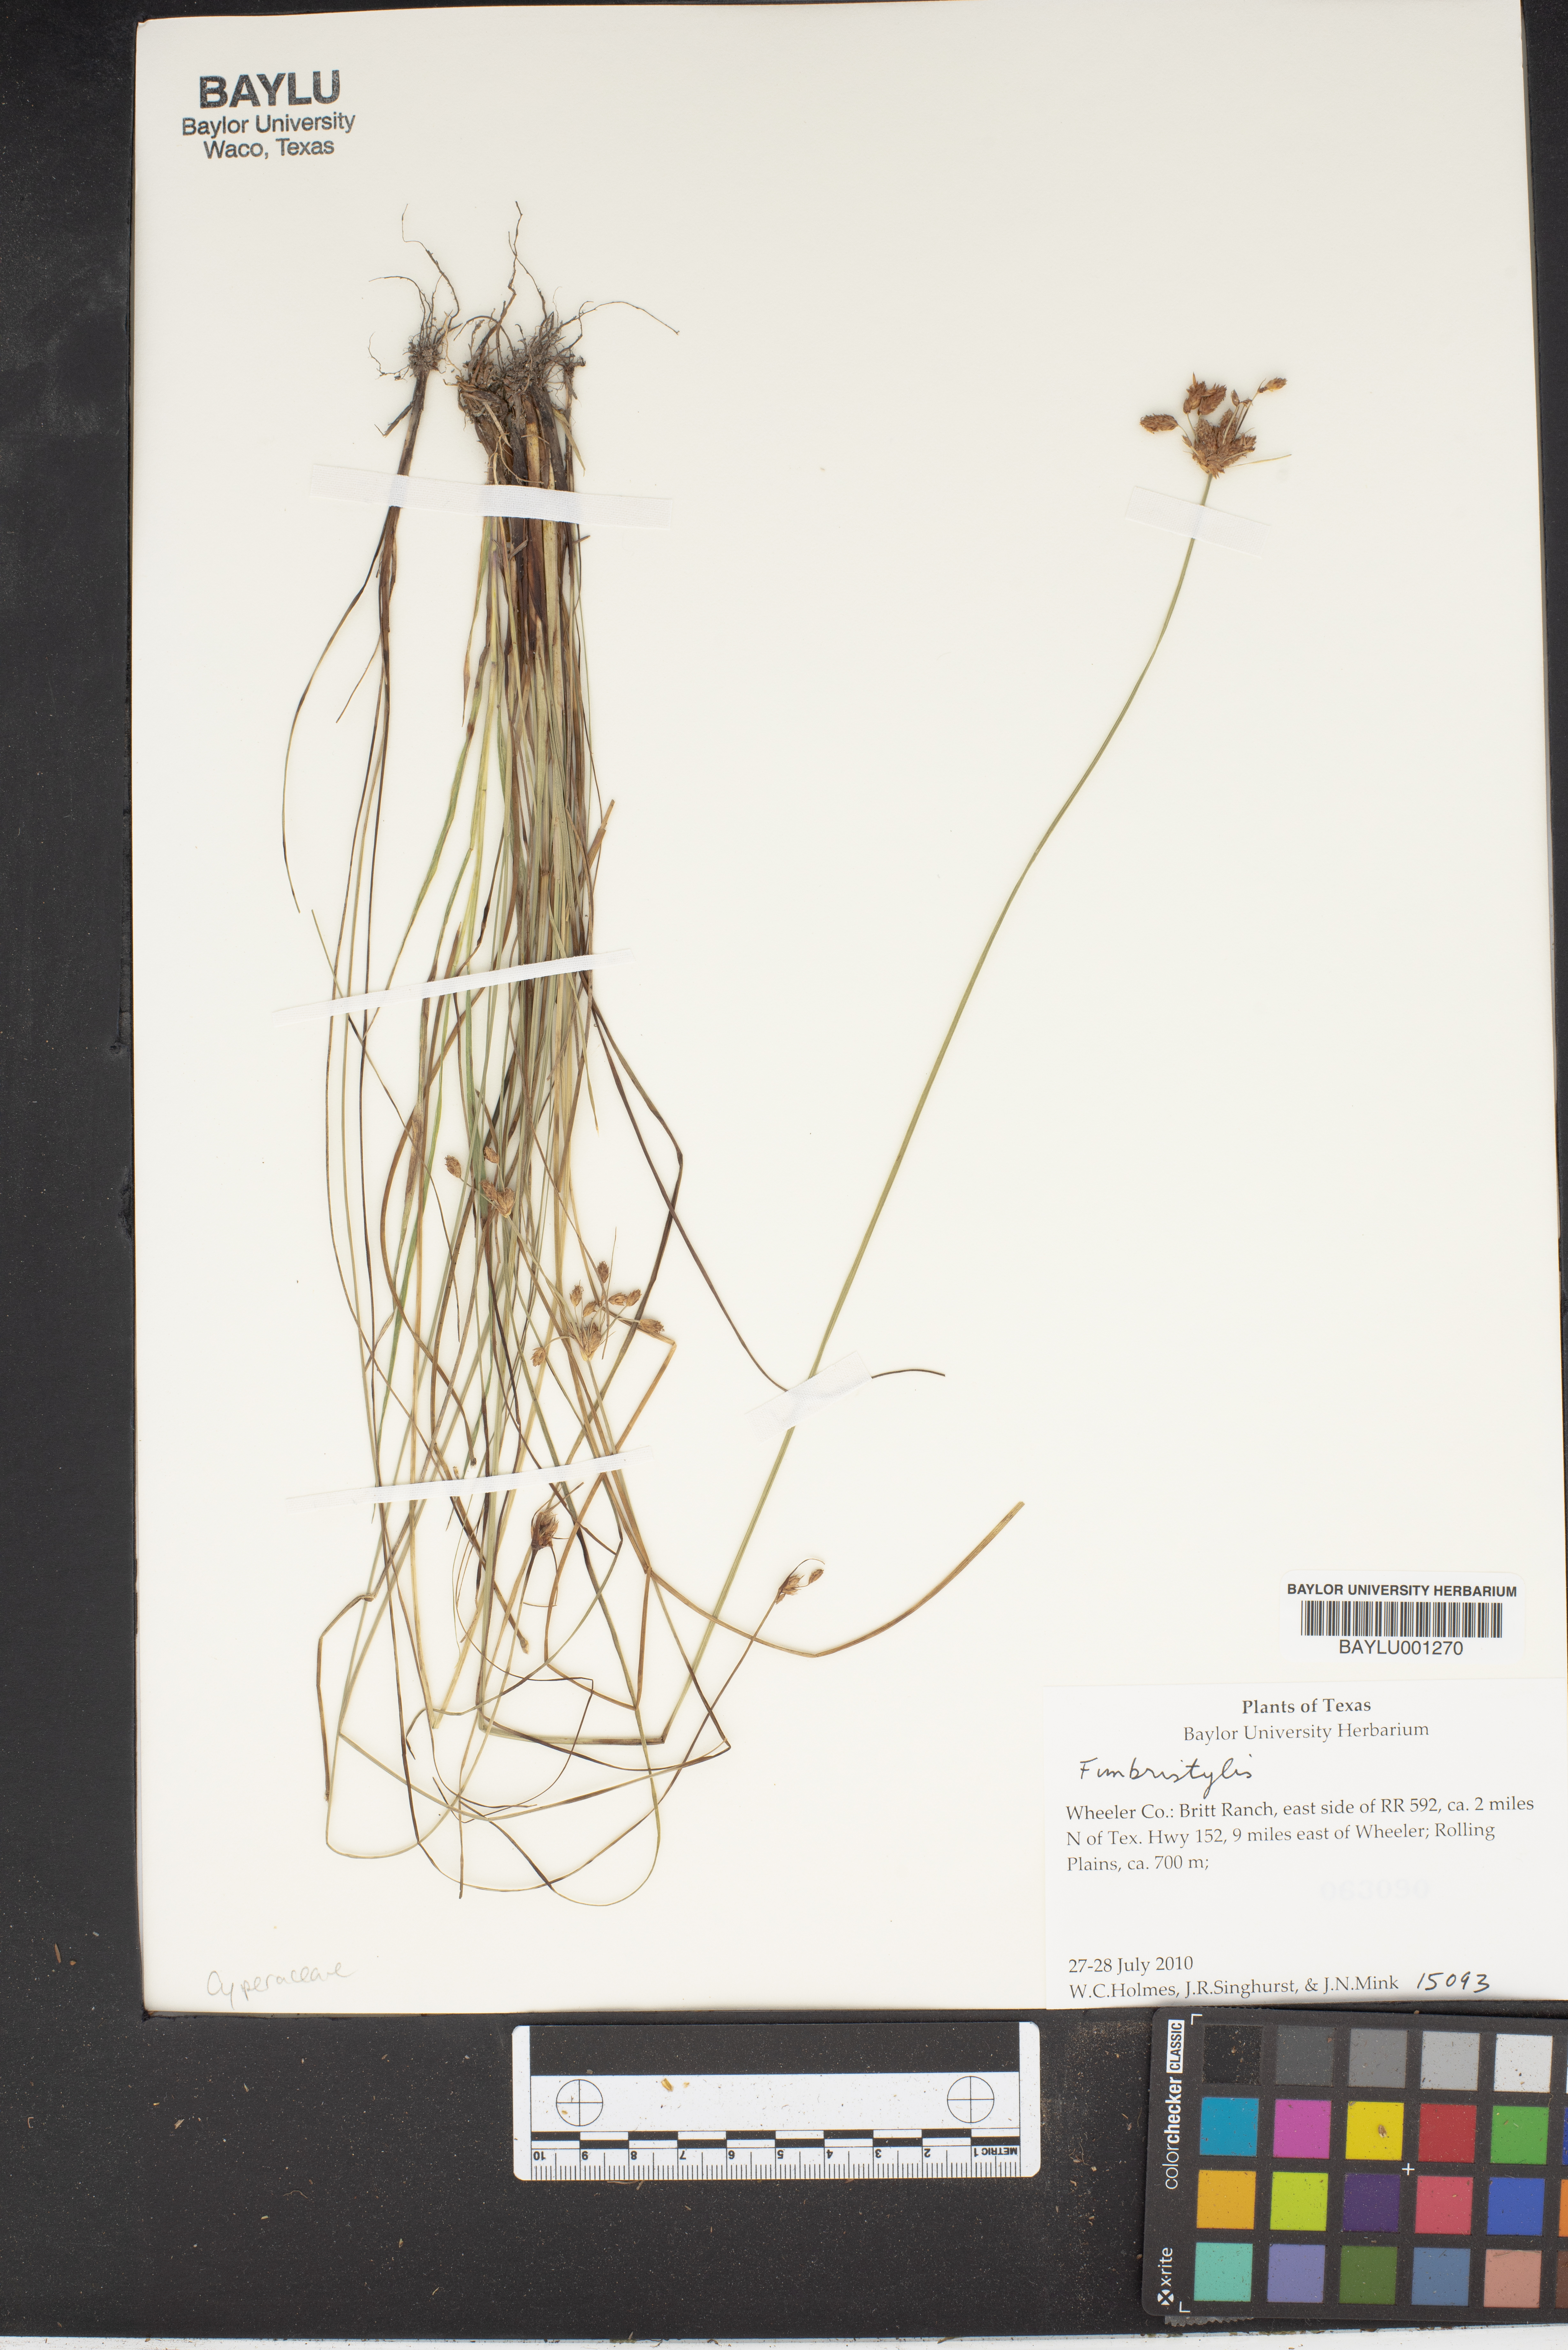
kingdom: Plantae
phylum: Tracheophyta
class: Liliopsida
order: Poales
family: Cyperaceae
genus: Fimbristylis
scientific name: Fimbristylis
